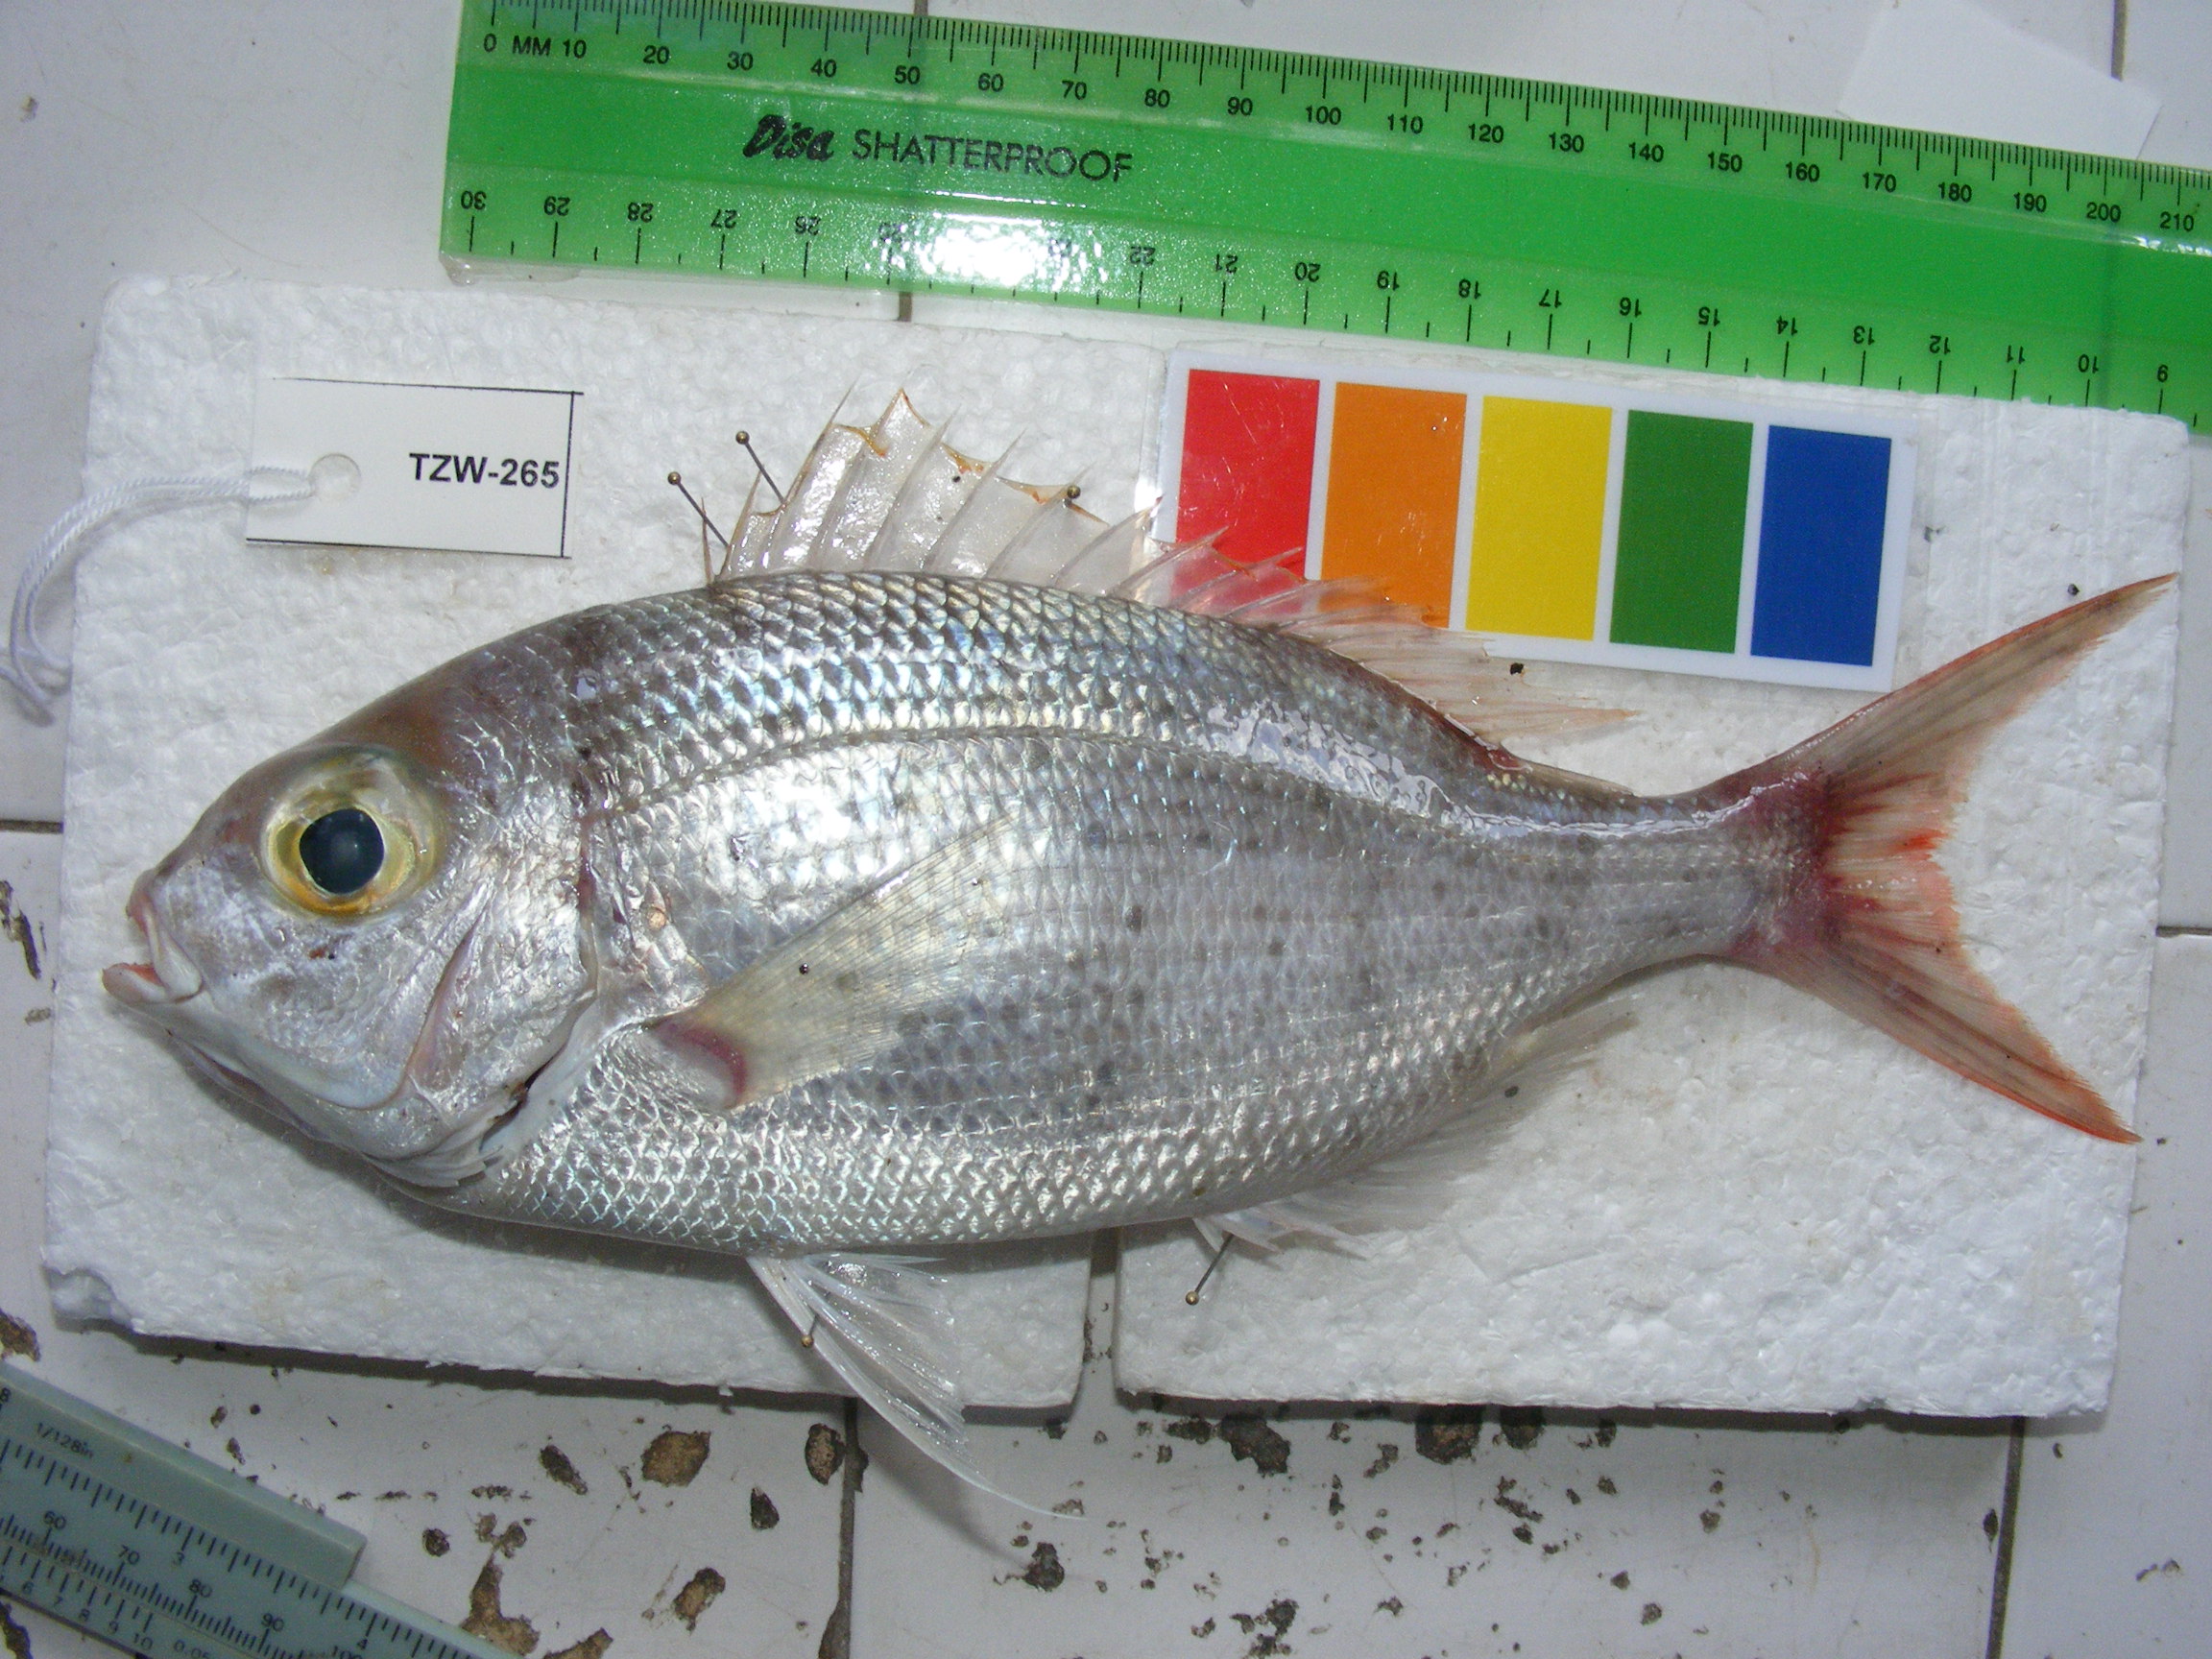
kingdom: Animalia
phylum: Chordata
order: Perciformes
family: Lethrinidae
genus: Gymnocranius
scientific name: Gymnocranius elongatus
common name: Forktail large-eye bream
